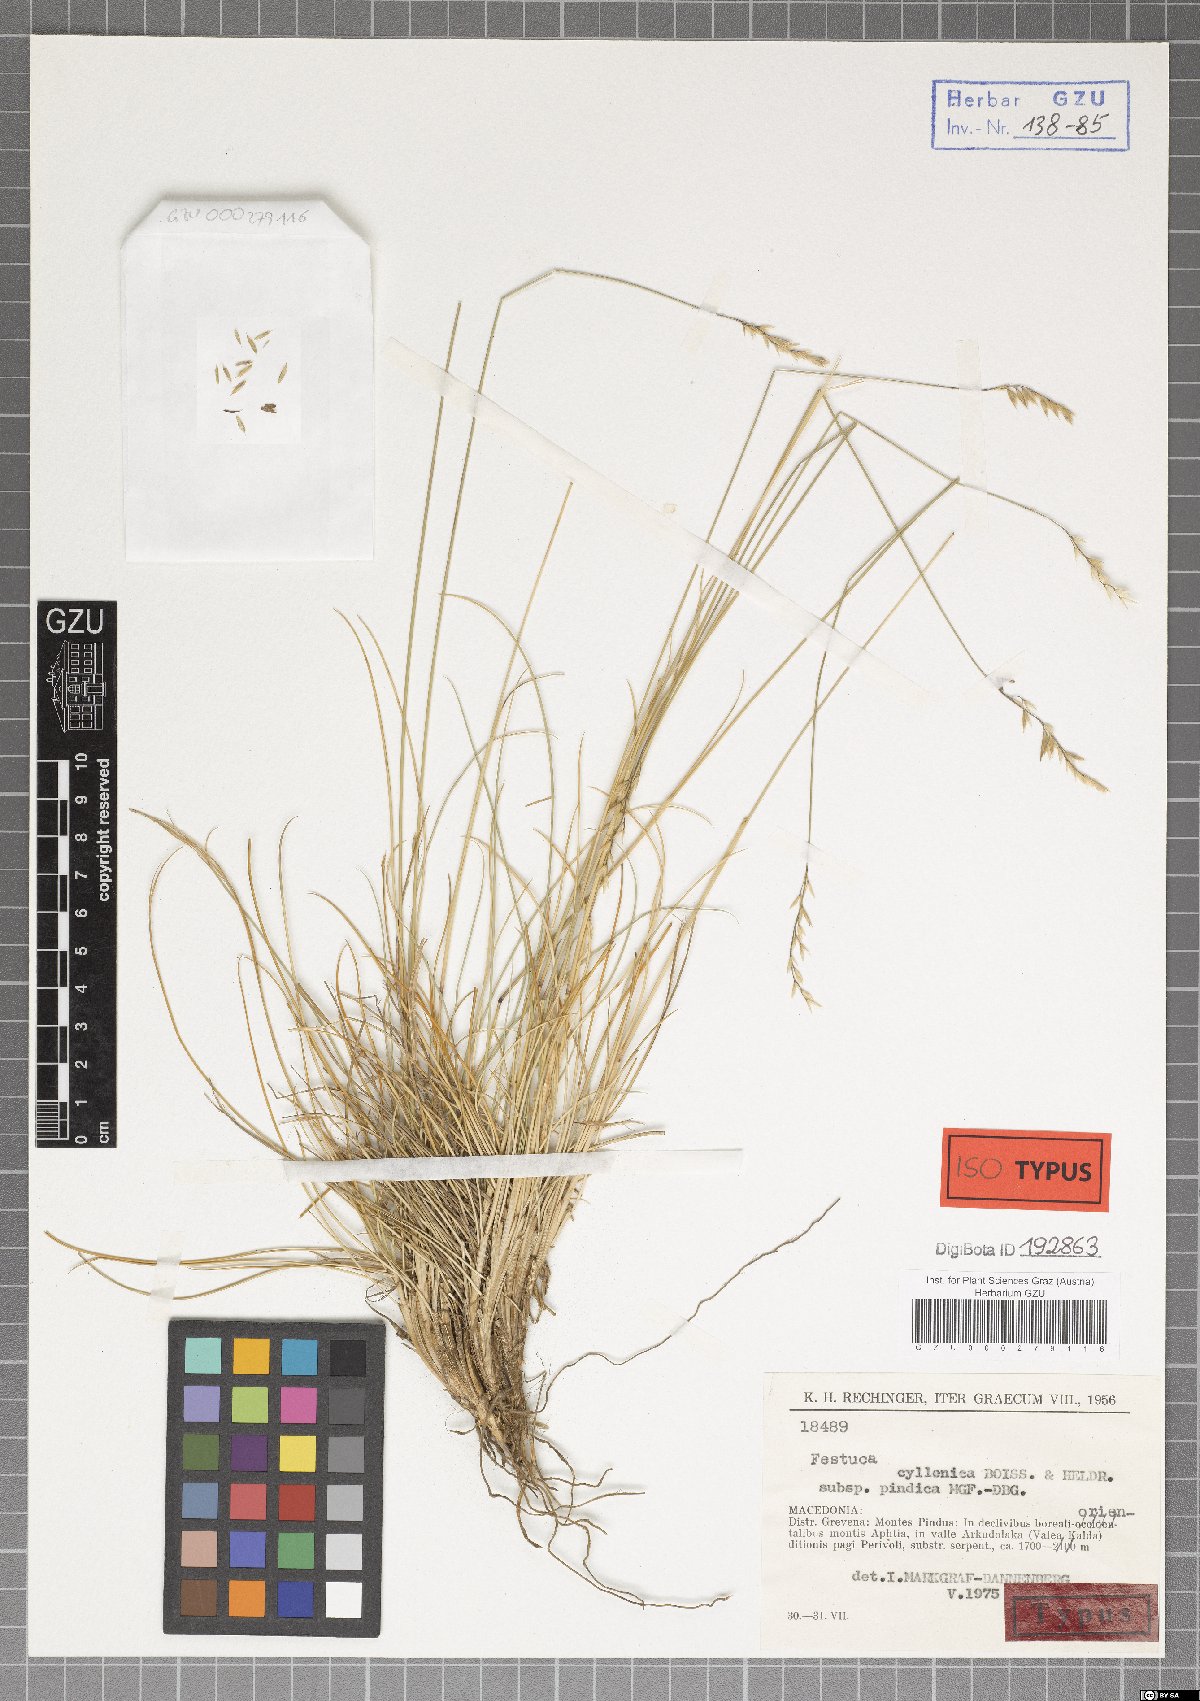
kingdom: Plantae
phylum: Tracheophyta
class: Liliopsida
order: Poales
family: Poaceae
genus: Festuca
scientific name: Festuca pindica
